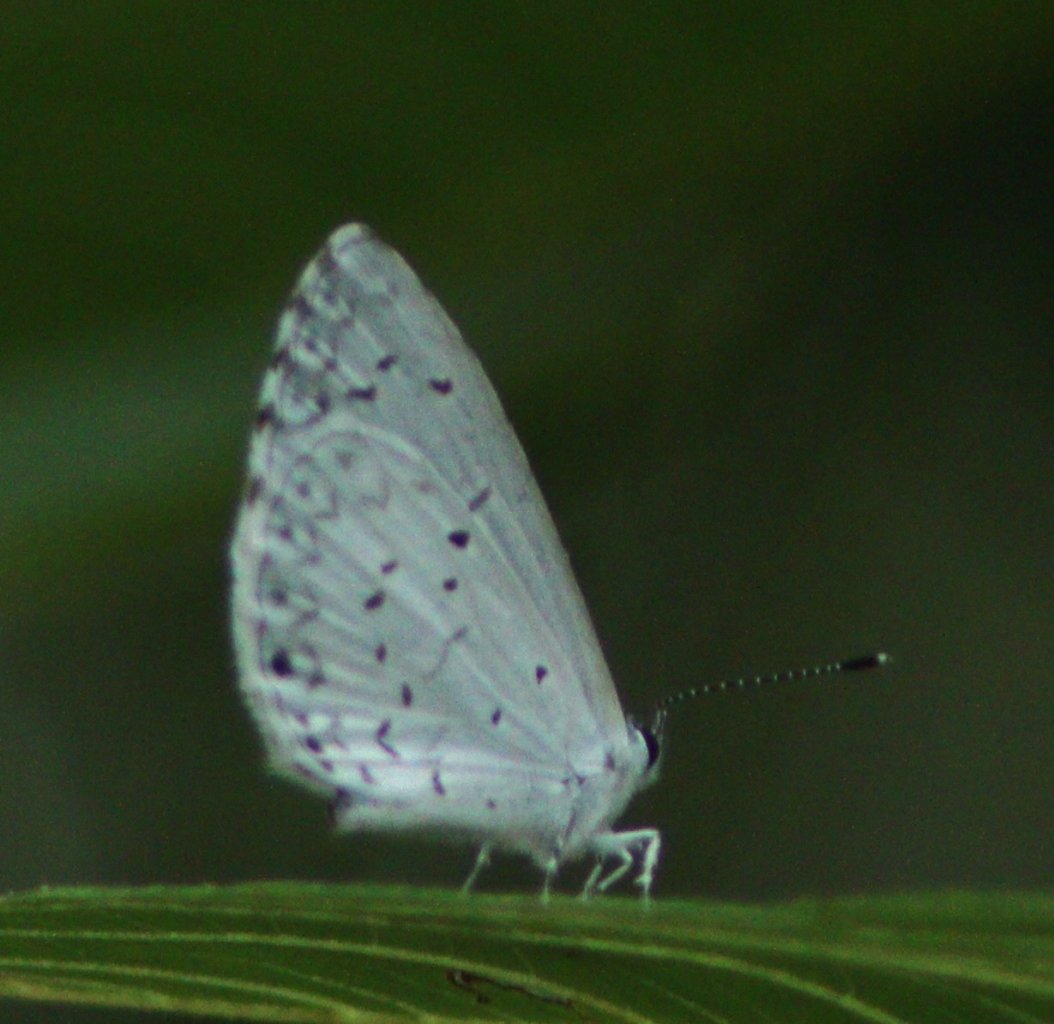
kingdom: Animalia
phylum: Arthropoda
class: Insecta
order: Lepidoptera
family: Lycaenidae
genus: Cyaniris
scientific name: Cyaniris neglecta
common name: Summer Azure
